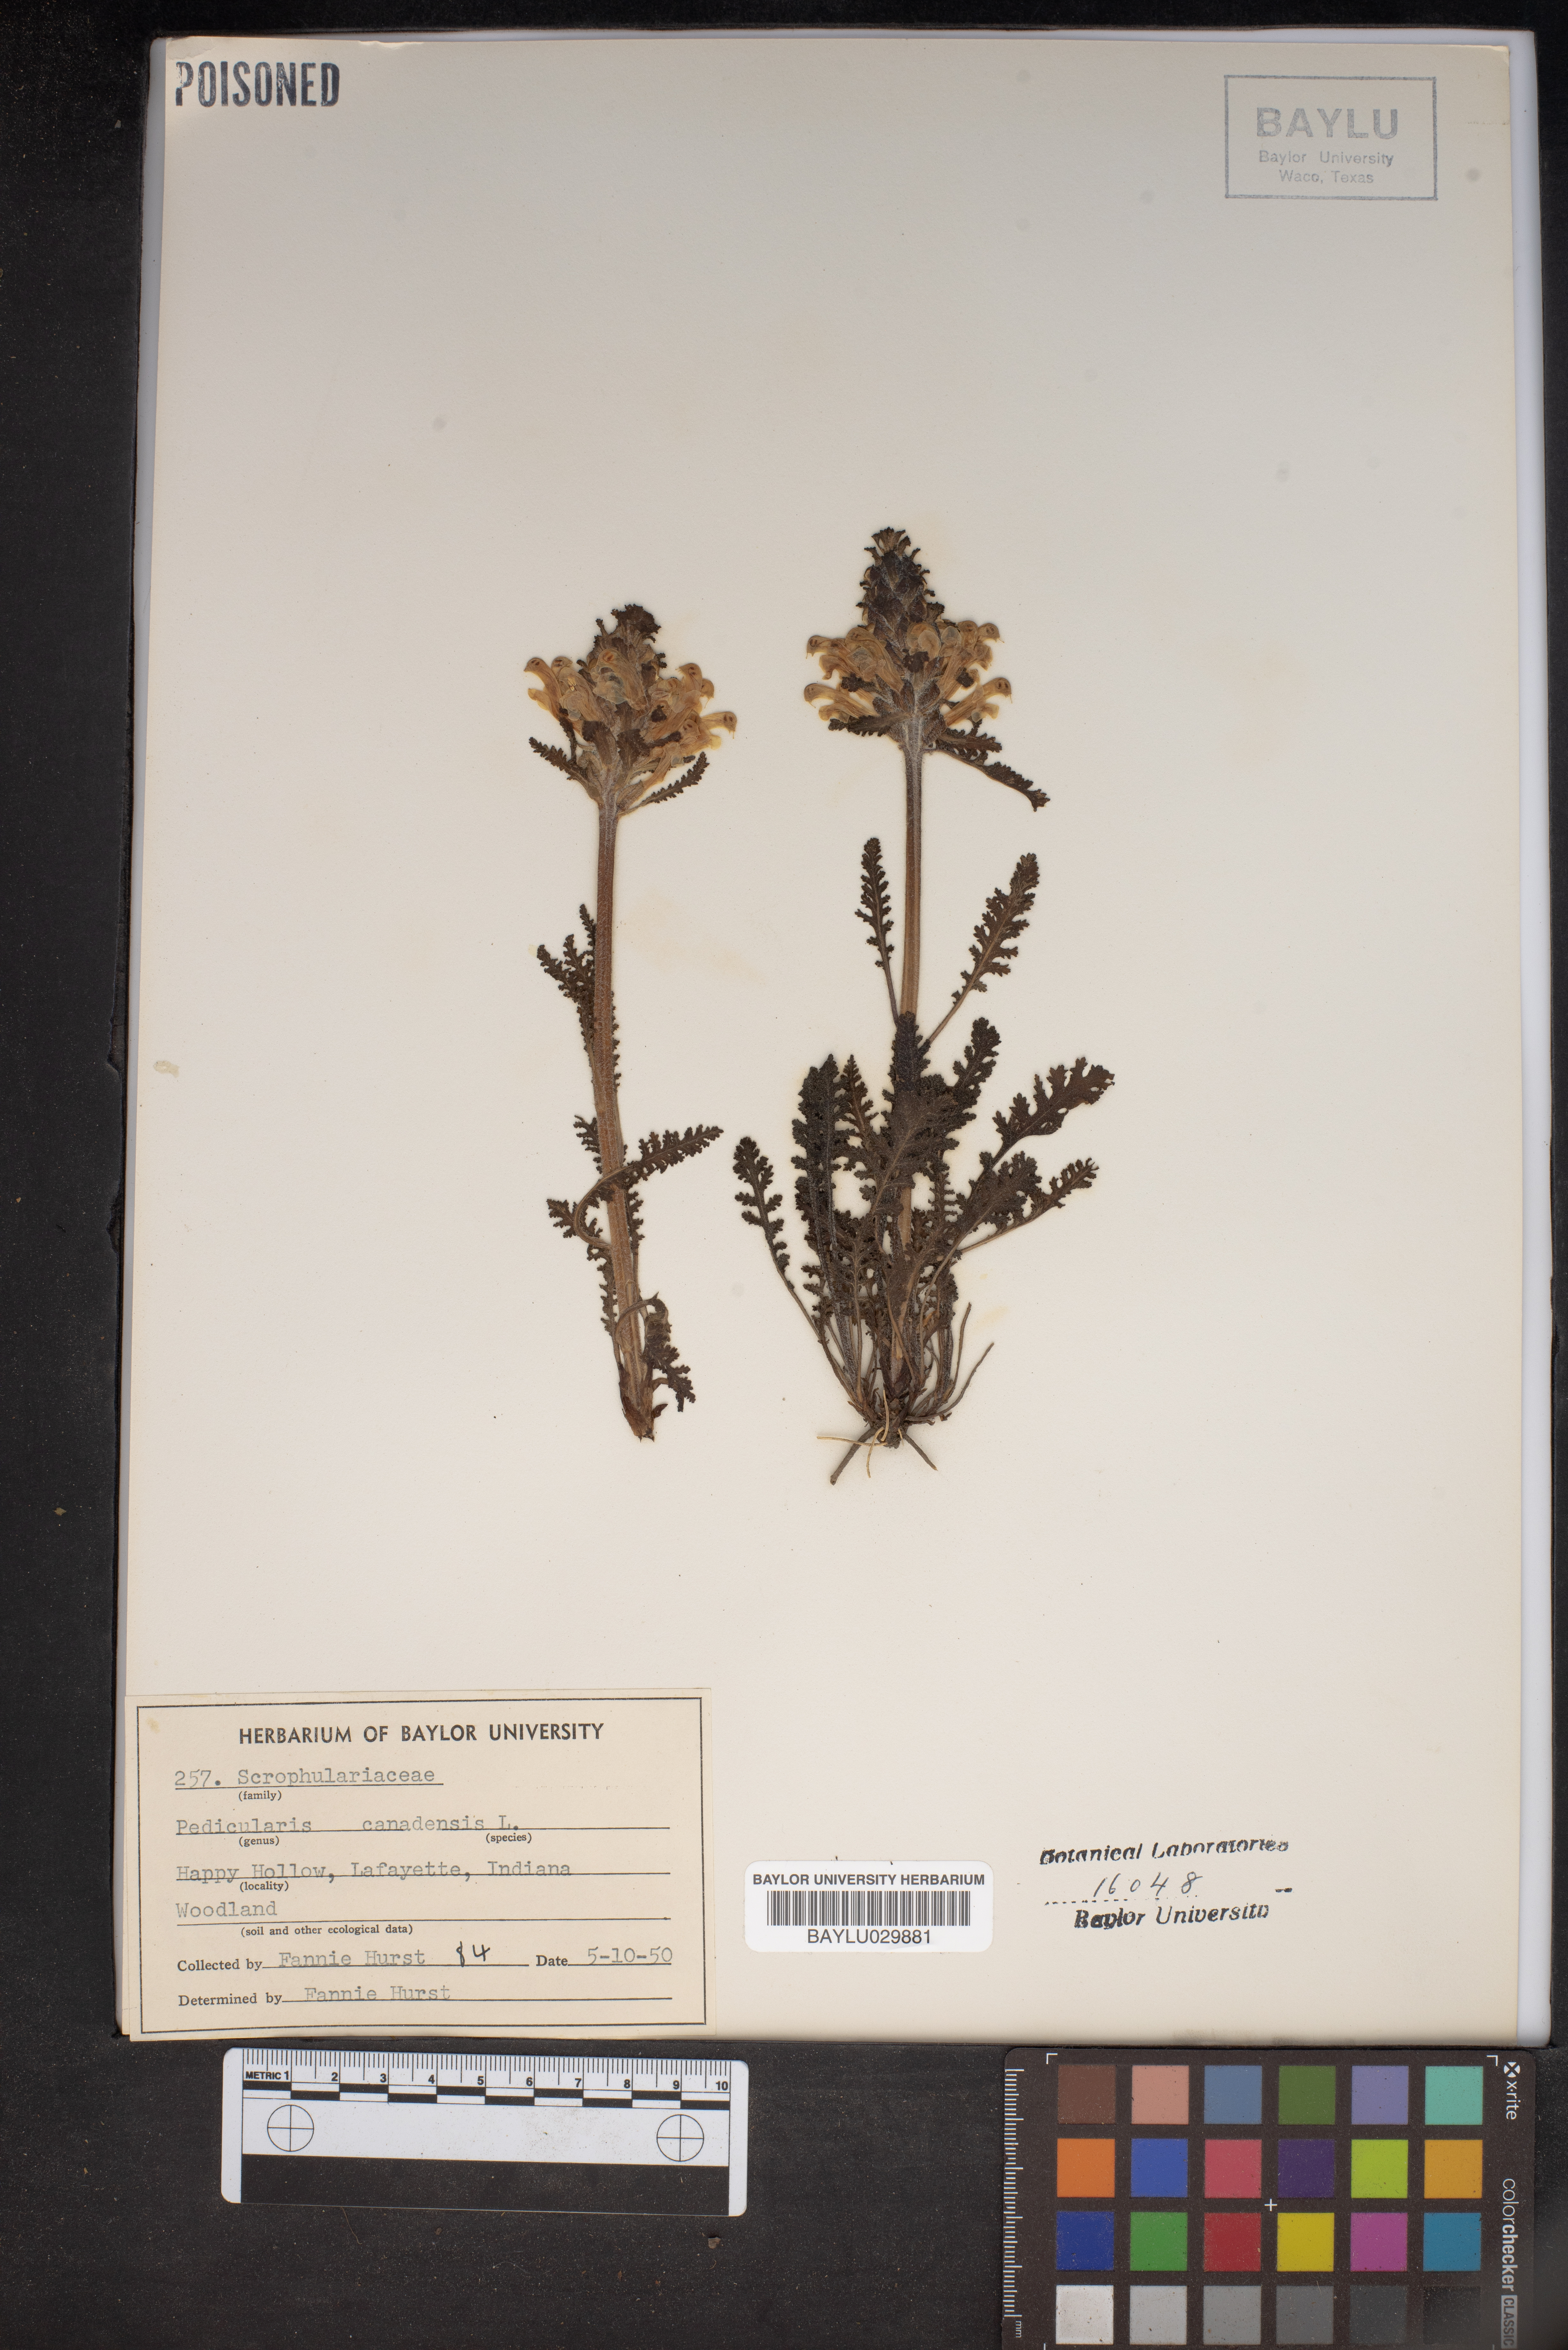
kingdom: Plantae
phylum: Tracheophyta
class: Magnoliopsida
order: Lamiales
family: Orobanchaceae
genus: Pedicularis
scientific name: Pedicularis canadensis
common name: Early lousewort
